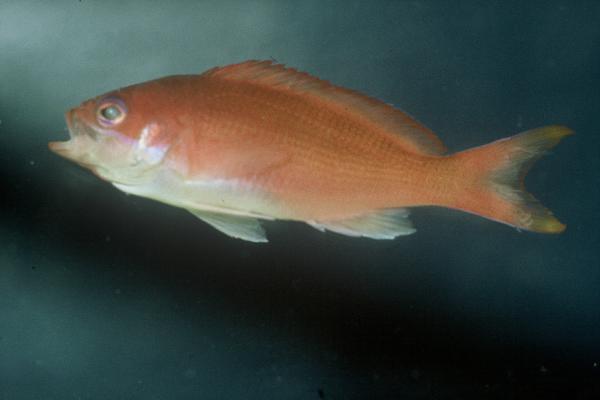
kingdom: Animalia
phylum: Chordata
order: Perciformes
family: Serranidae
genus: Pseudanthias
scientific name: Pseudanthias squamipinnis
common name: Scalefin anthias
